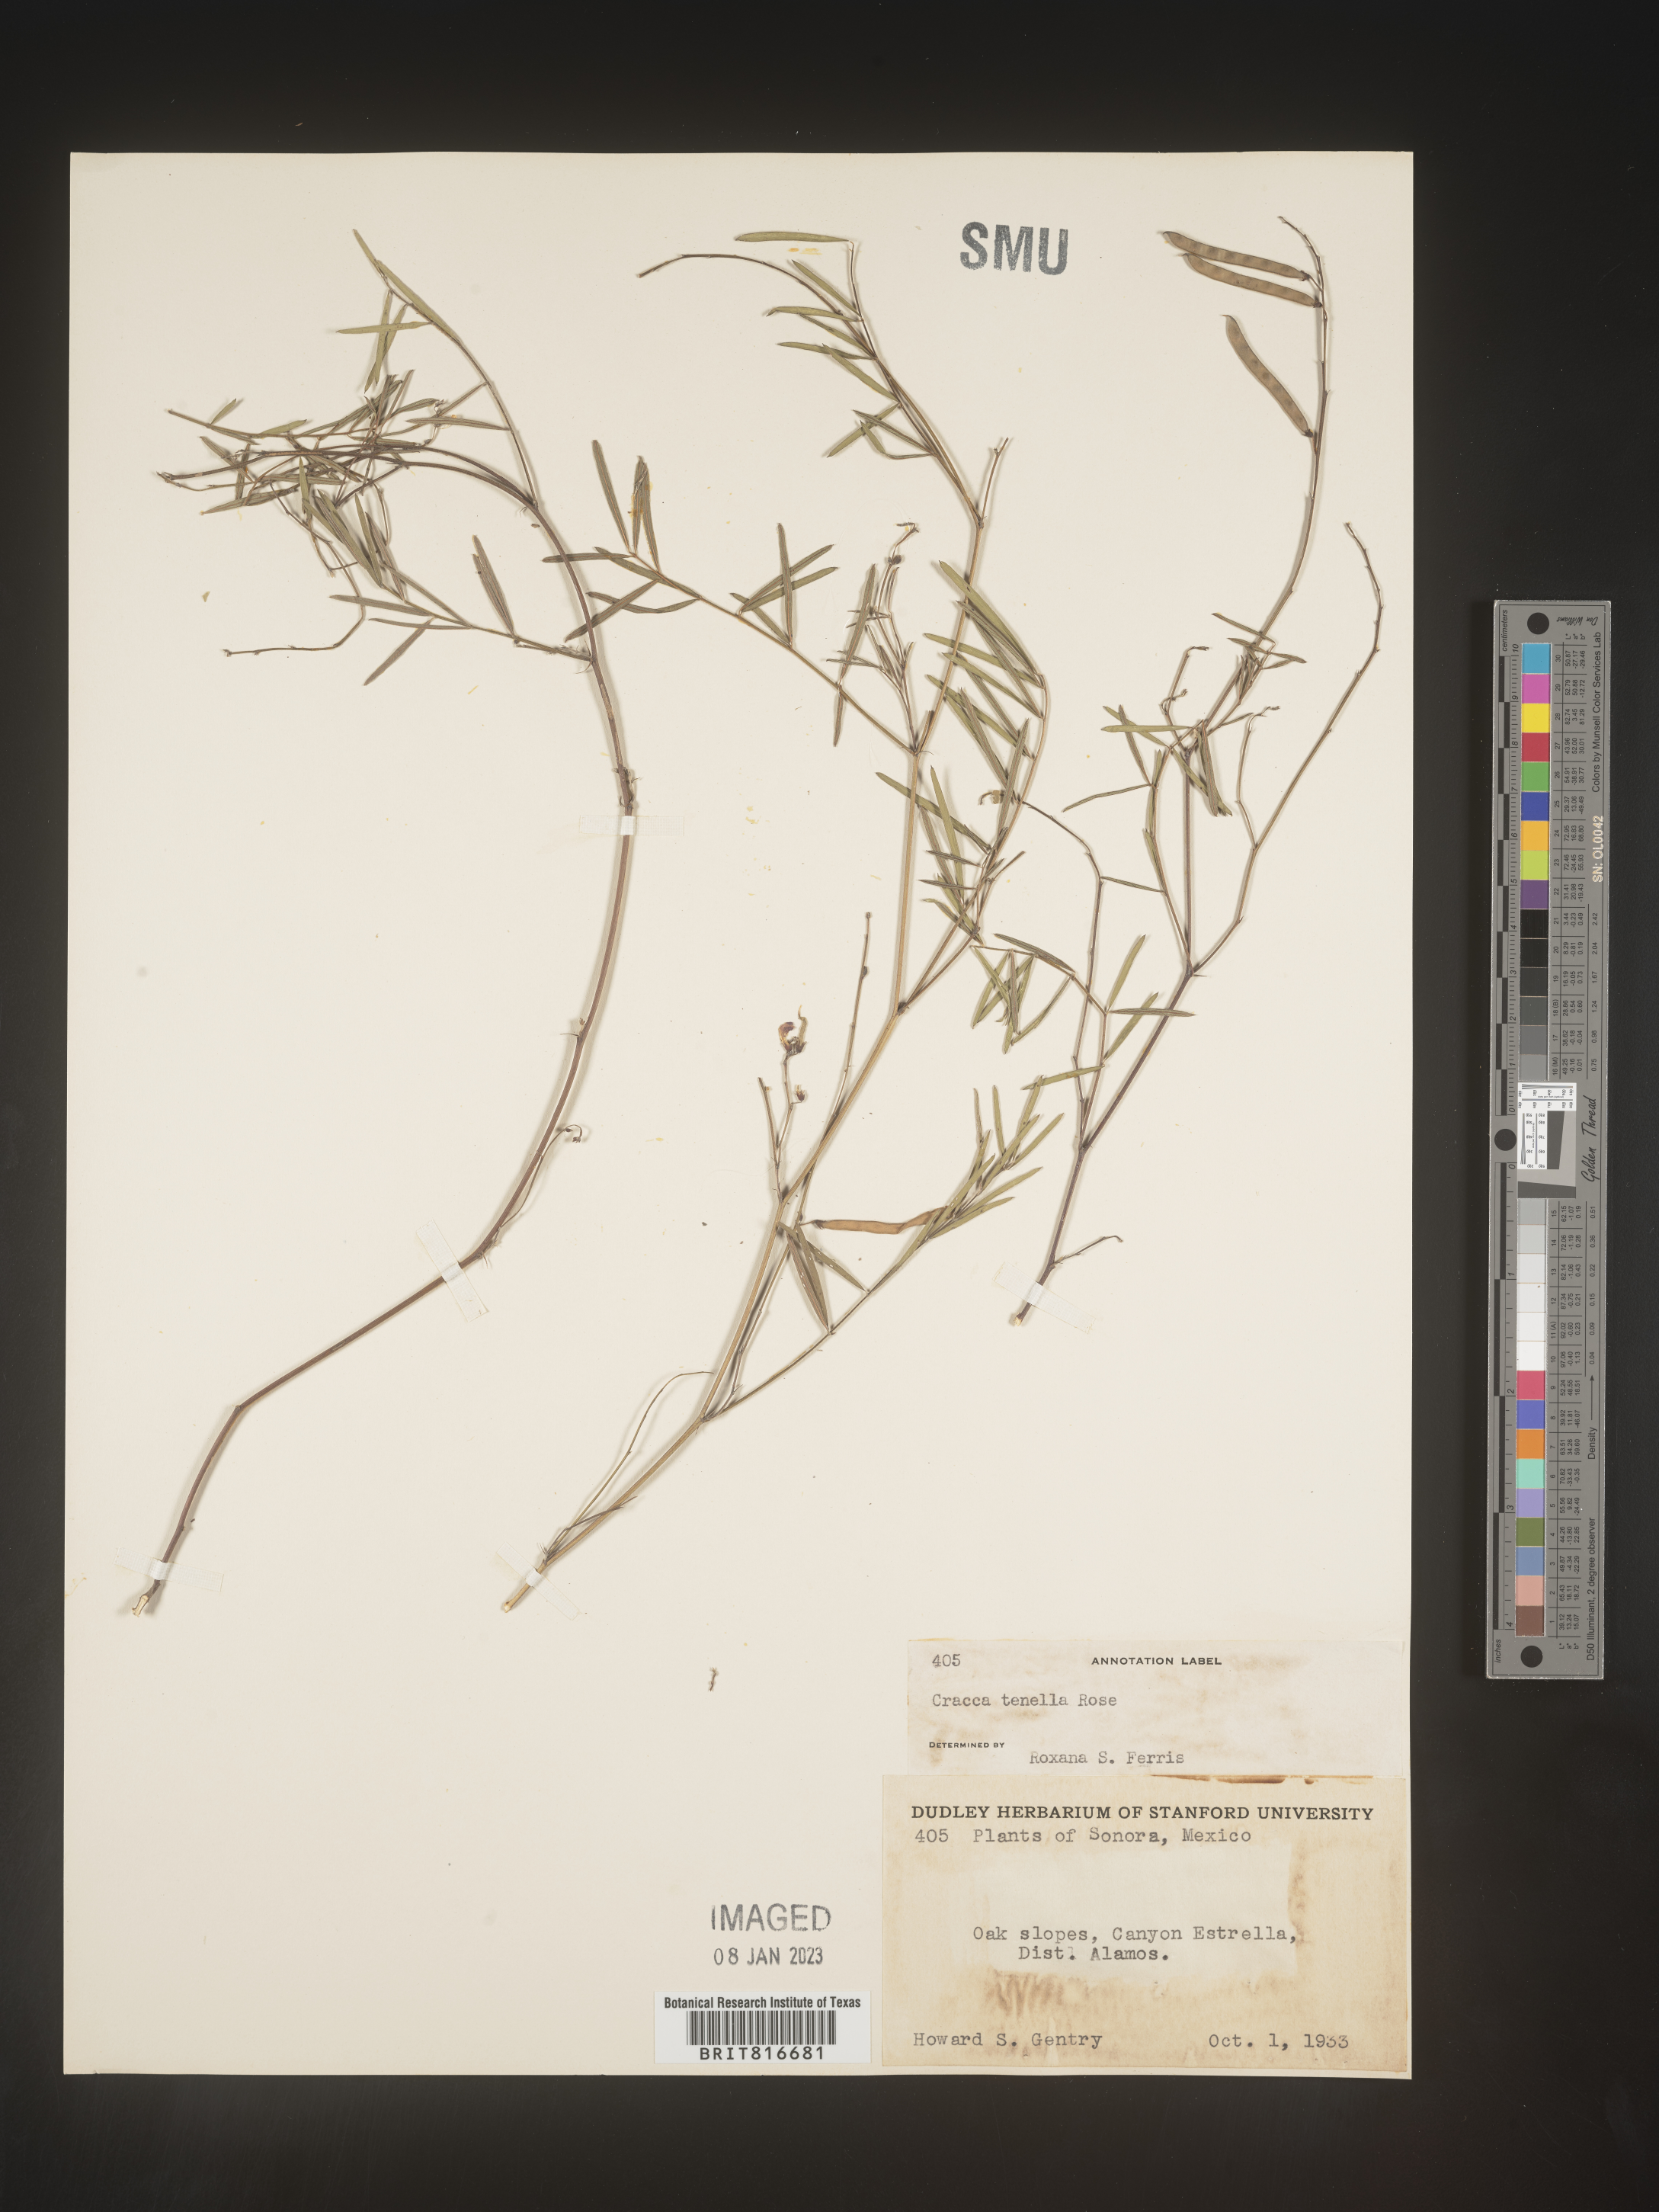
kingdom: Plantae
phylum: Tracheophyta
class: Magnoliopsida
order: Fabales
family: Fabaceae
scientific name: Fabaceae
